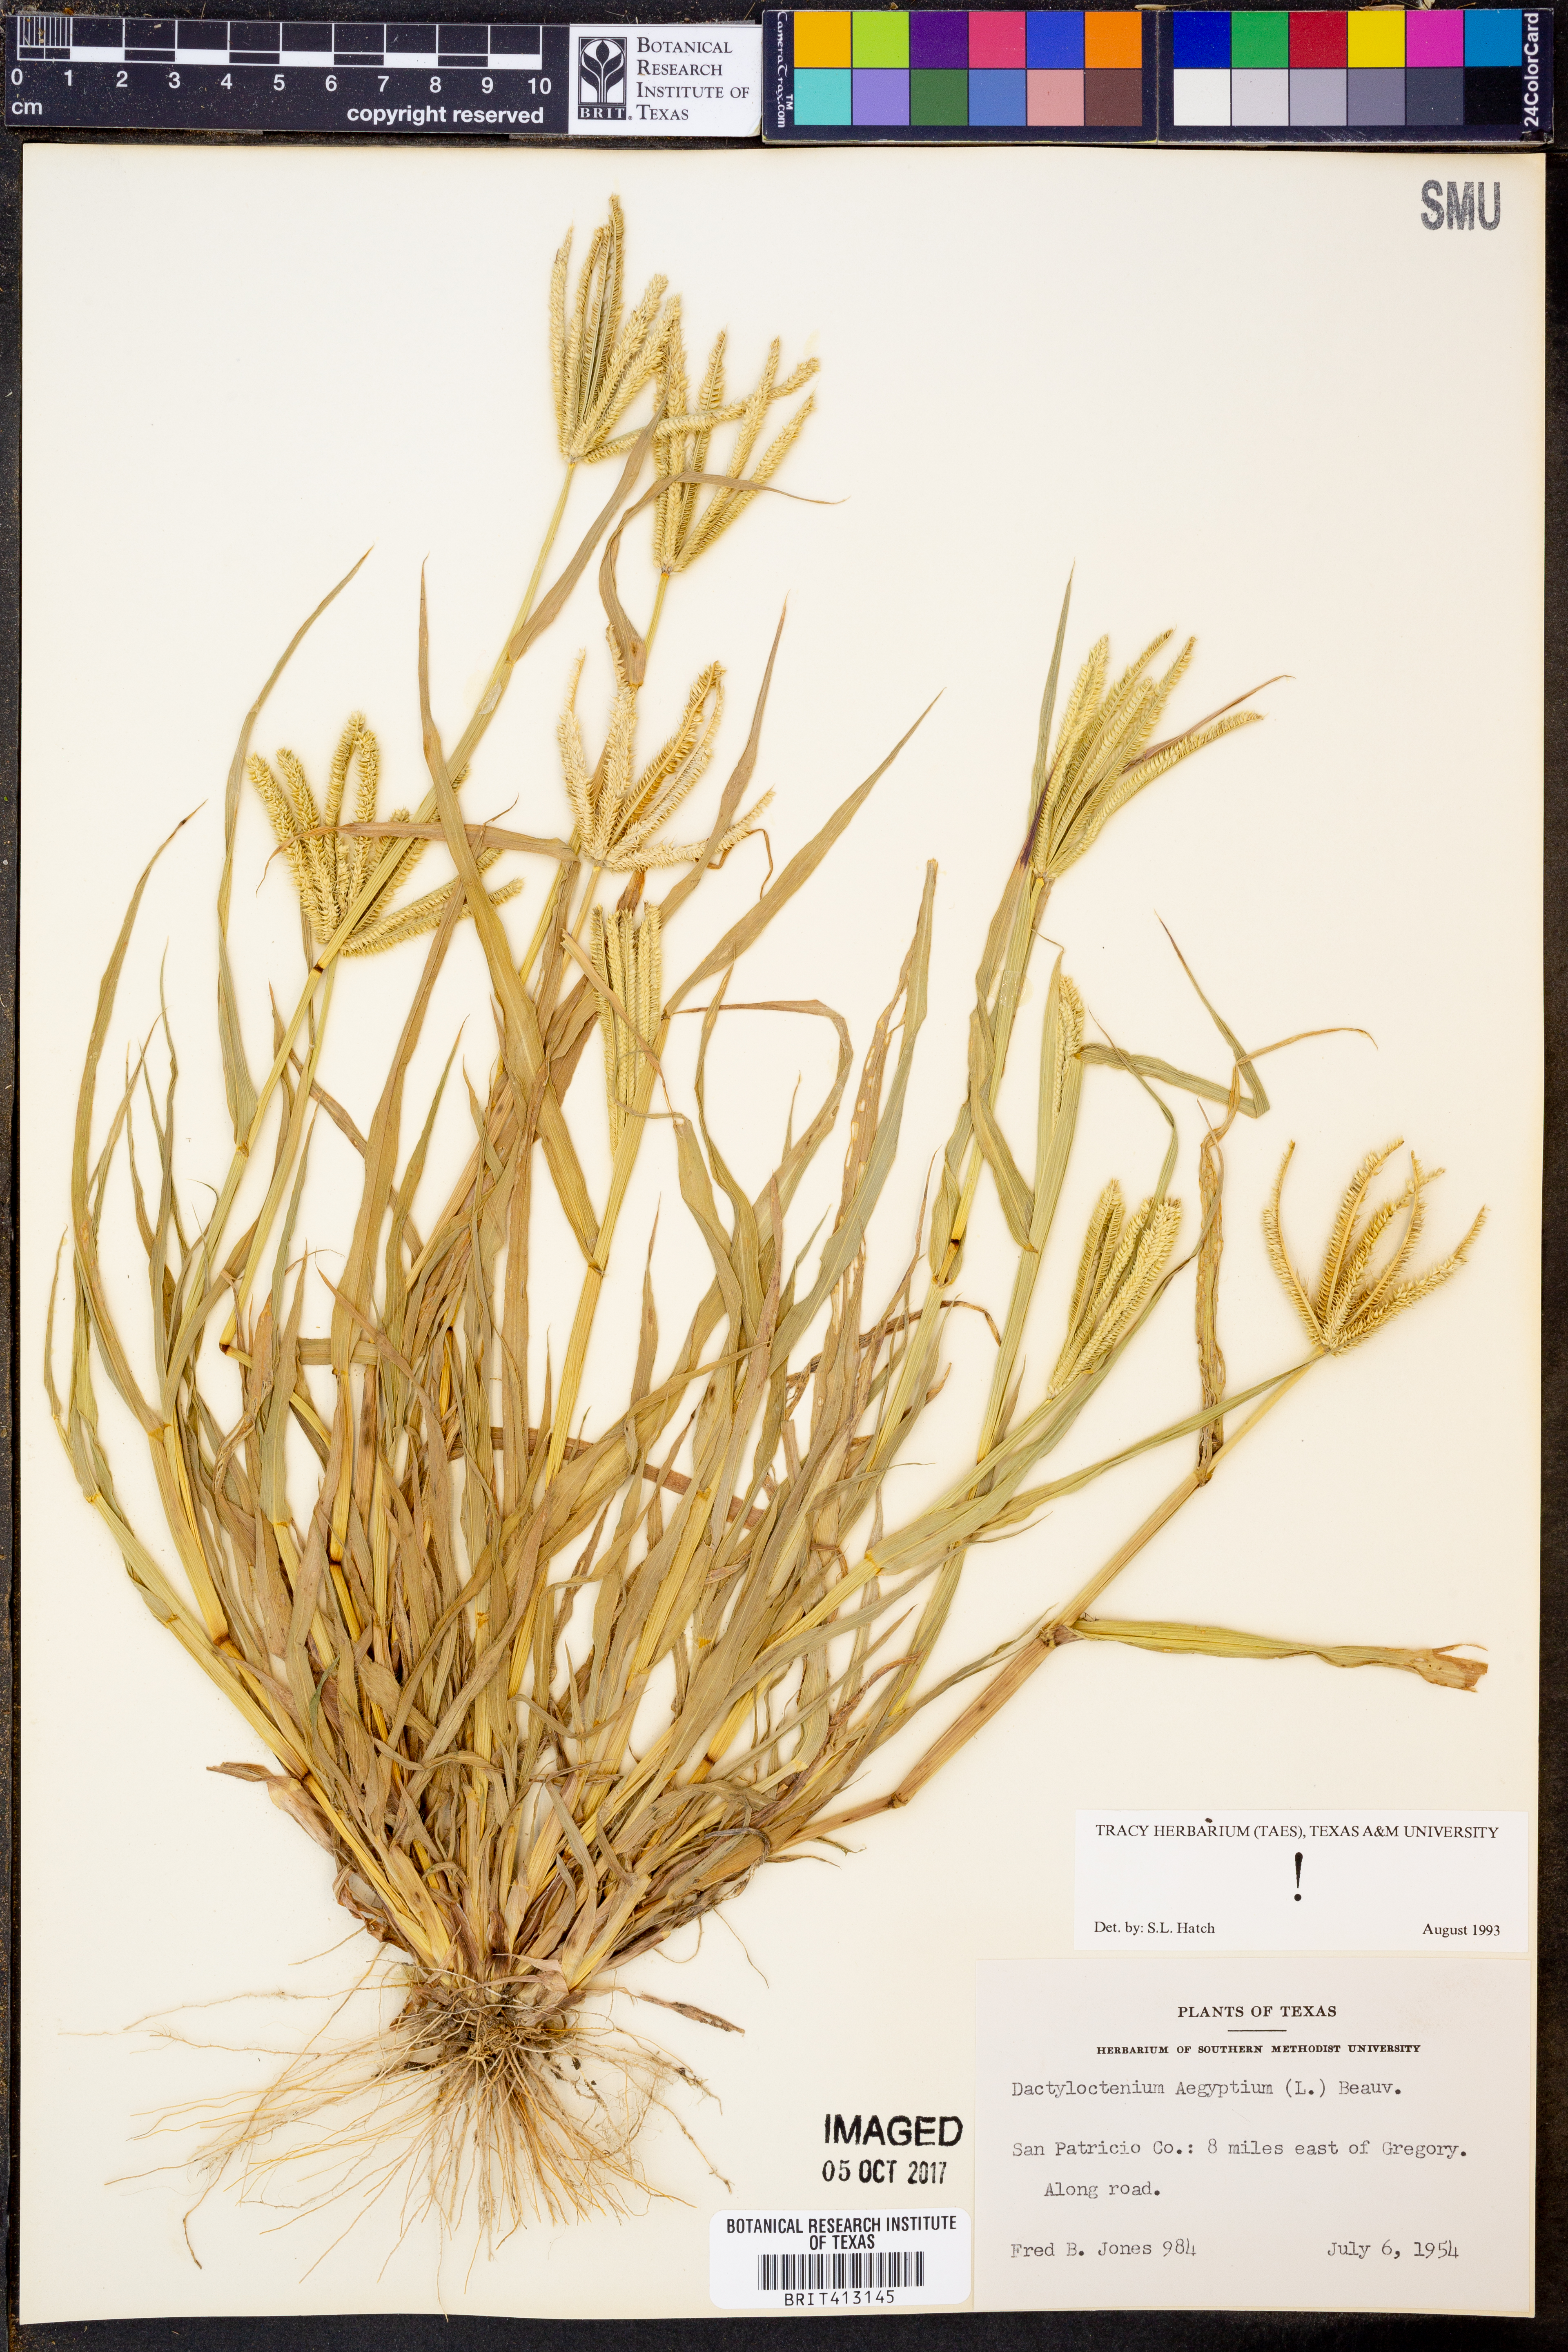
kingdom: Plantae
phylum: Tracheophyta
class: Liliopsida
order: Poales
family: Poaceae
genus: Dactyloctenium
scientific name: Dactyloctenium aegyptium
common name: Egyptian grass
